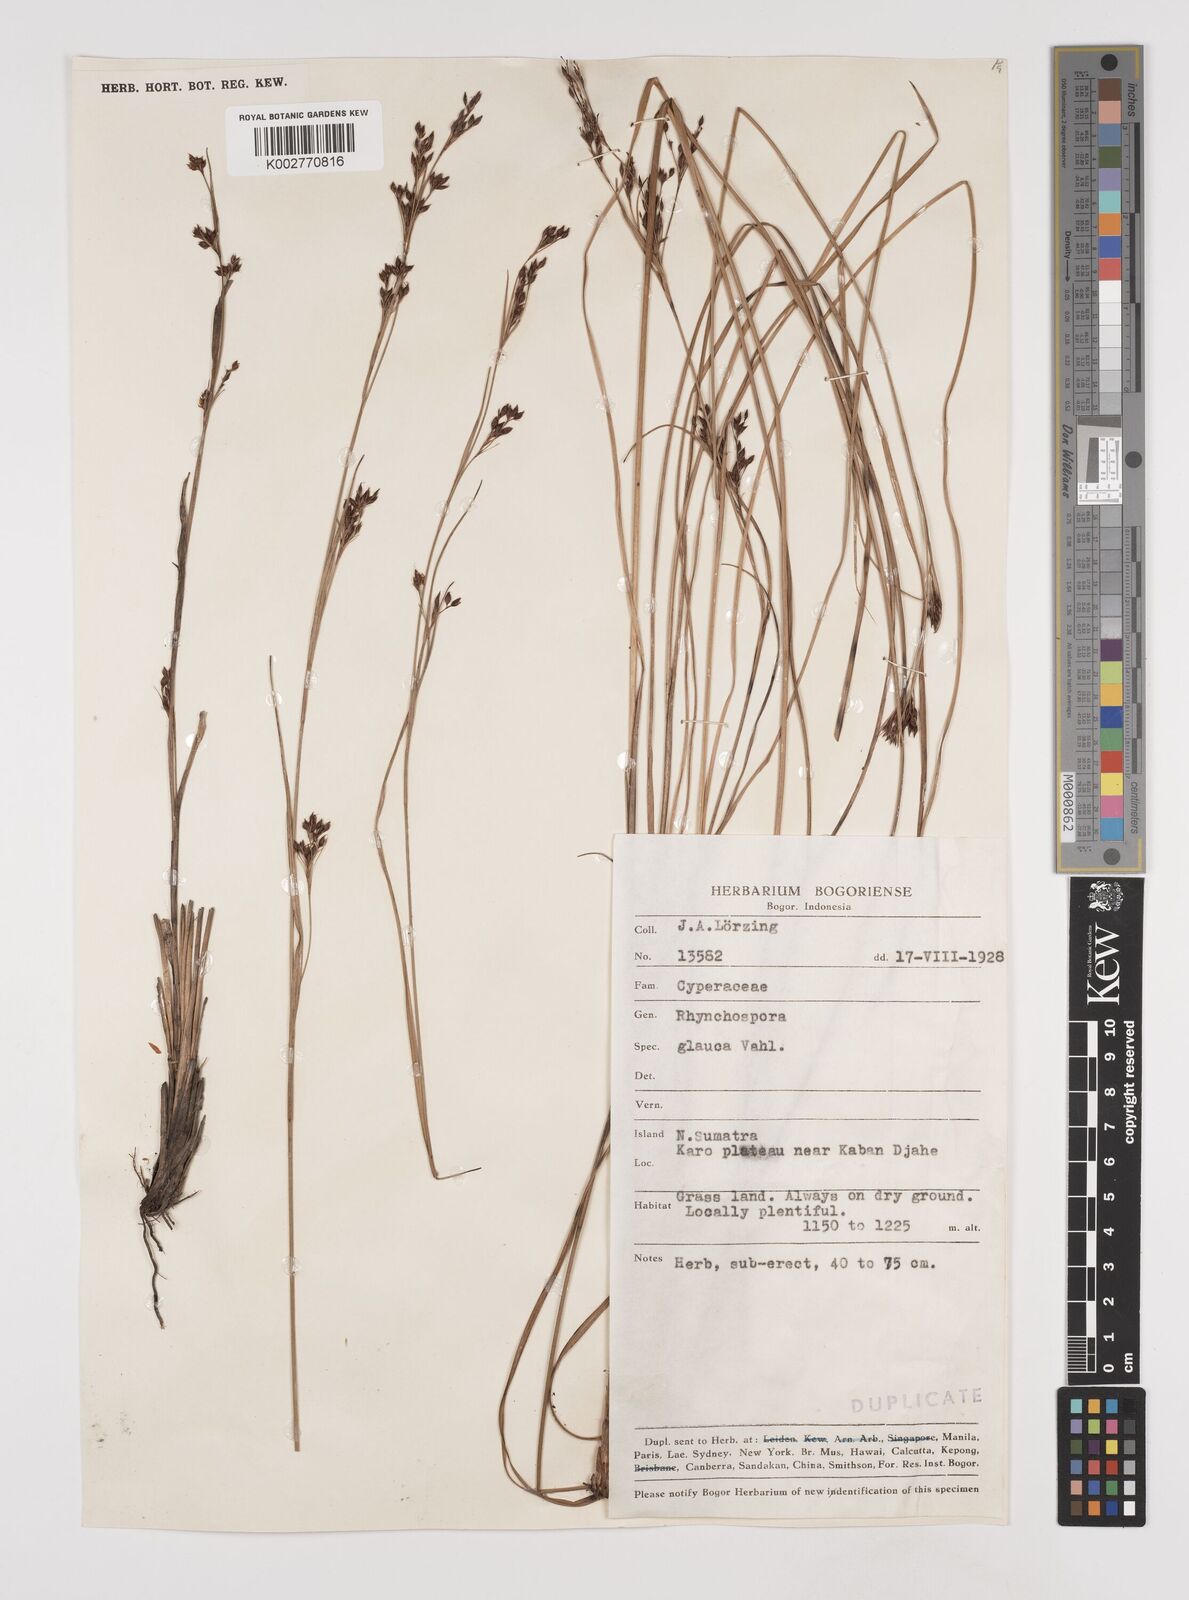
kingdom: Plantae
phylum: Tracheophyta
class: Liliopsida
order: Poales
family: Cyperaceae
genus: Rhynchospora
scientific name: Rhynchospora rugosa
